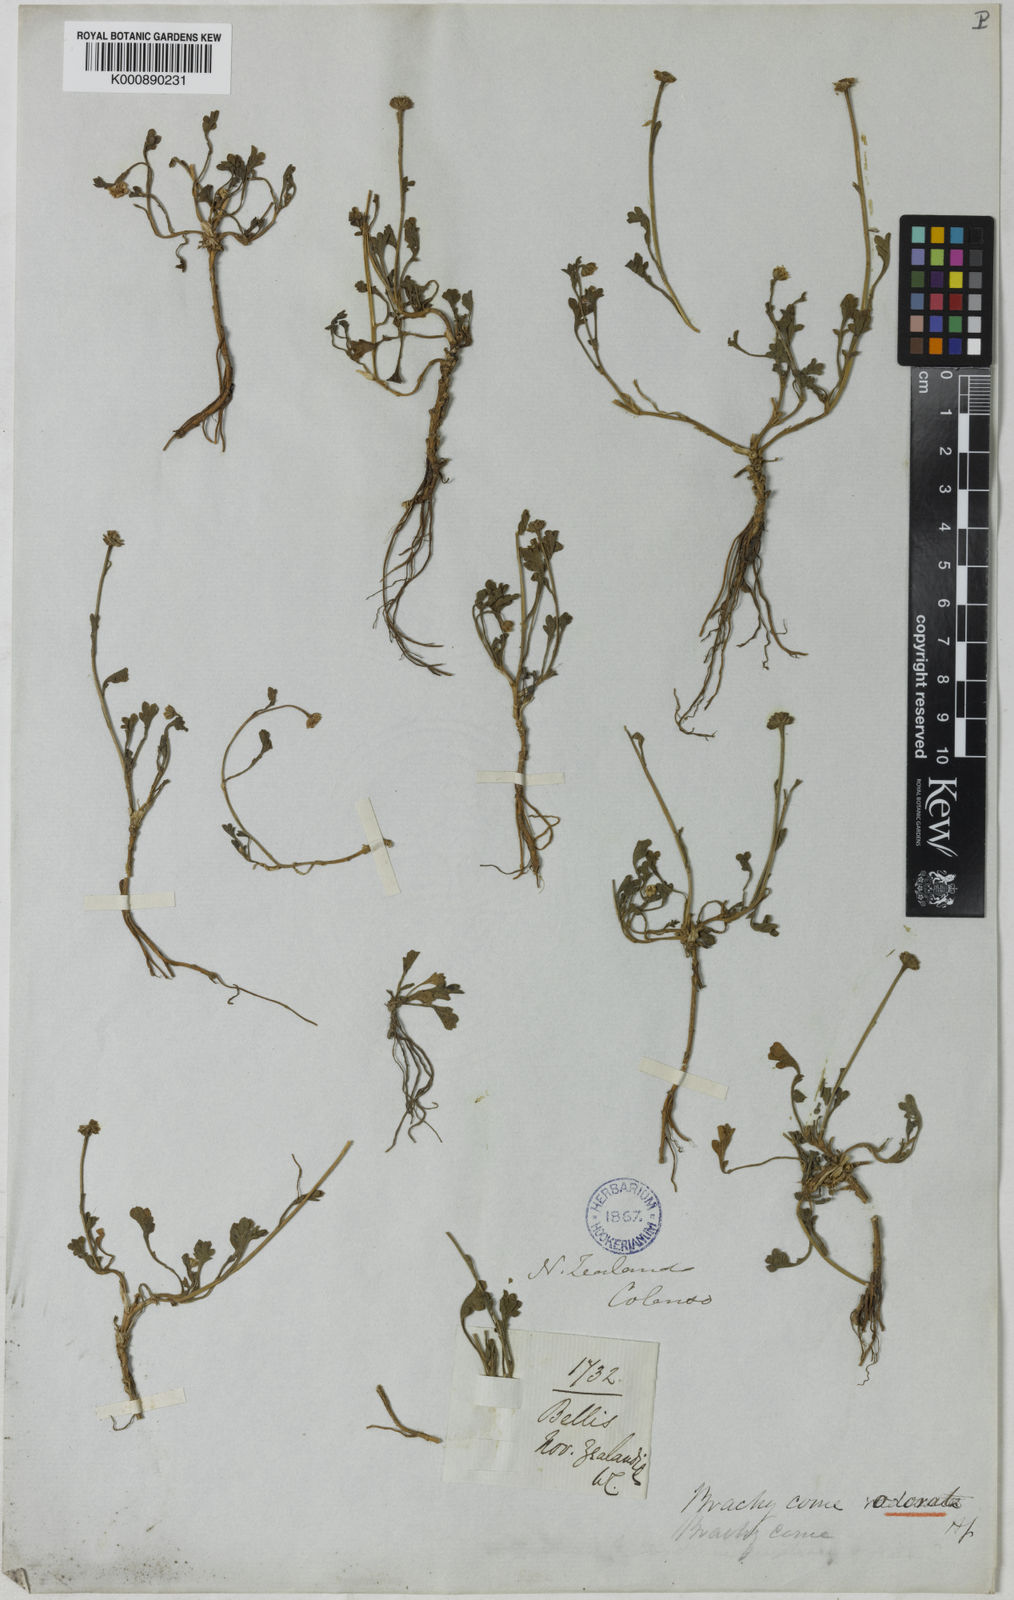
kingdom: Plantae
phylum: Tracheophyta
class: Magnoliopsida
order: Asterales
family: Asteraceae
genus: Brachyscome
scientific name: Brachyscome radicata
